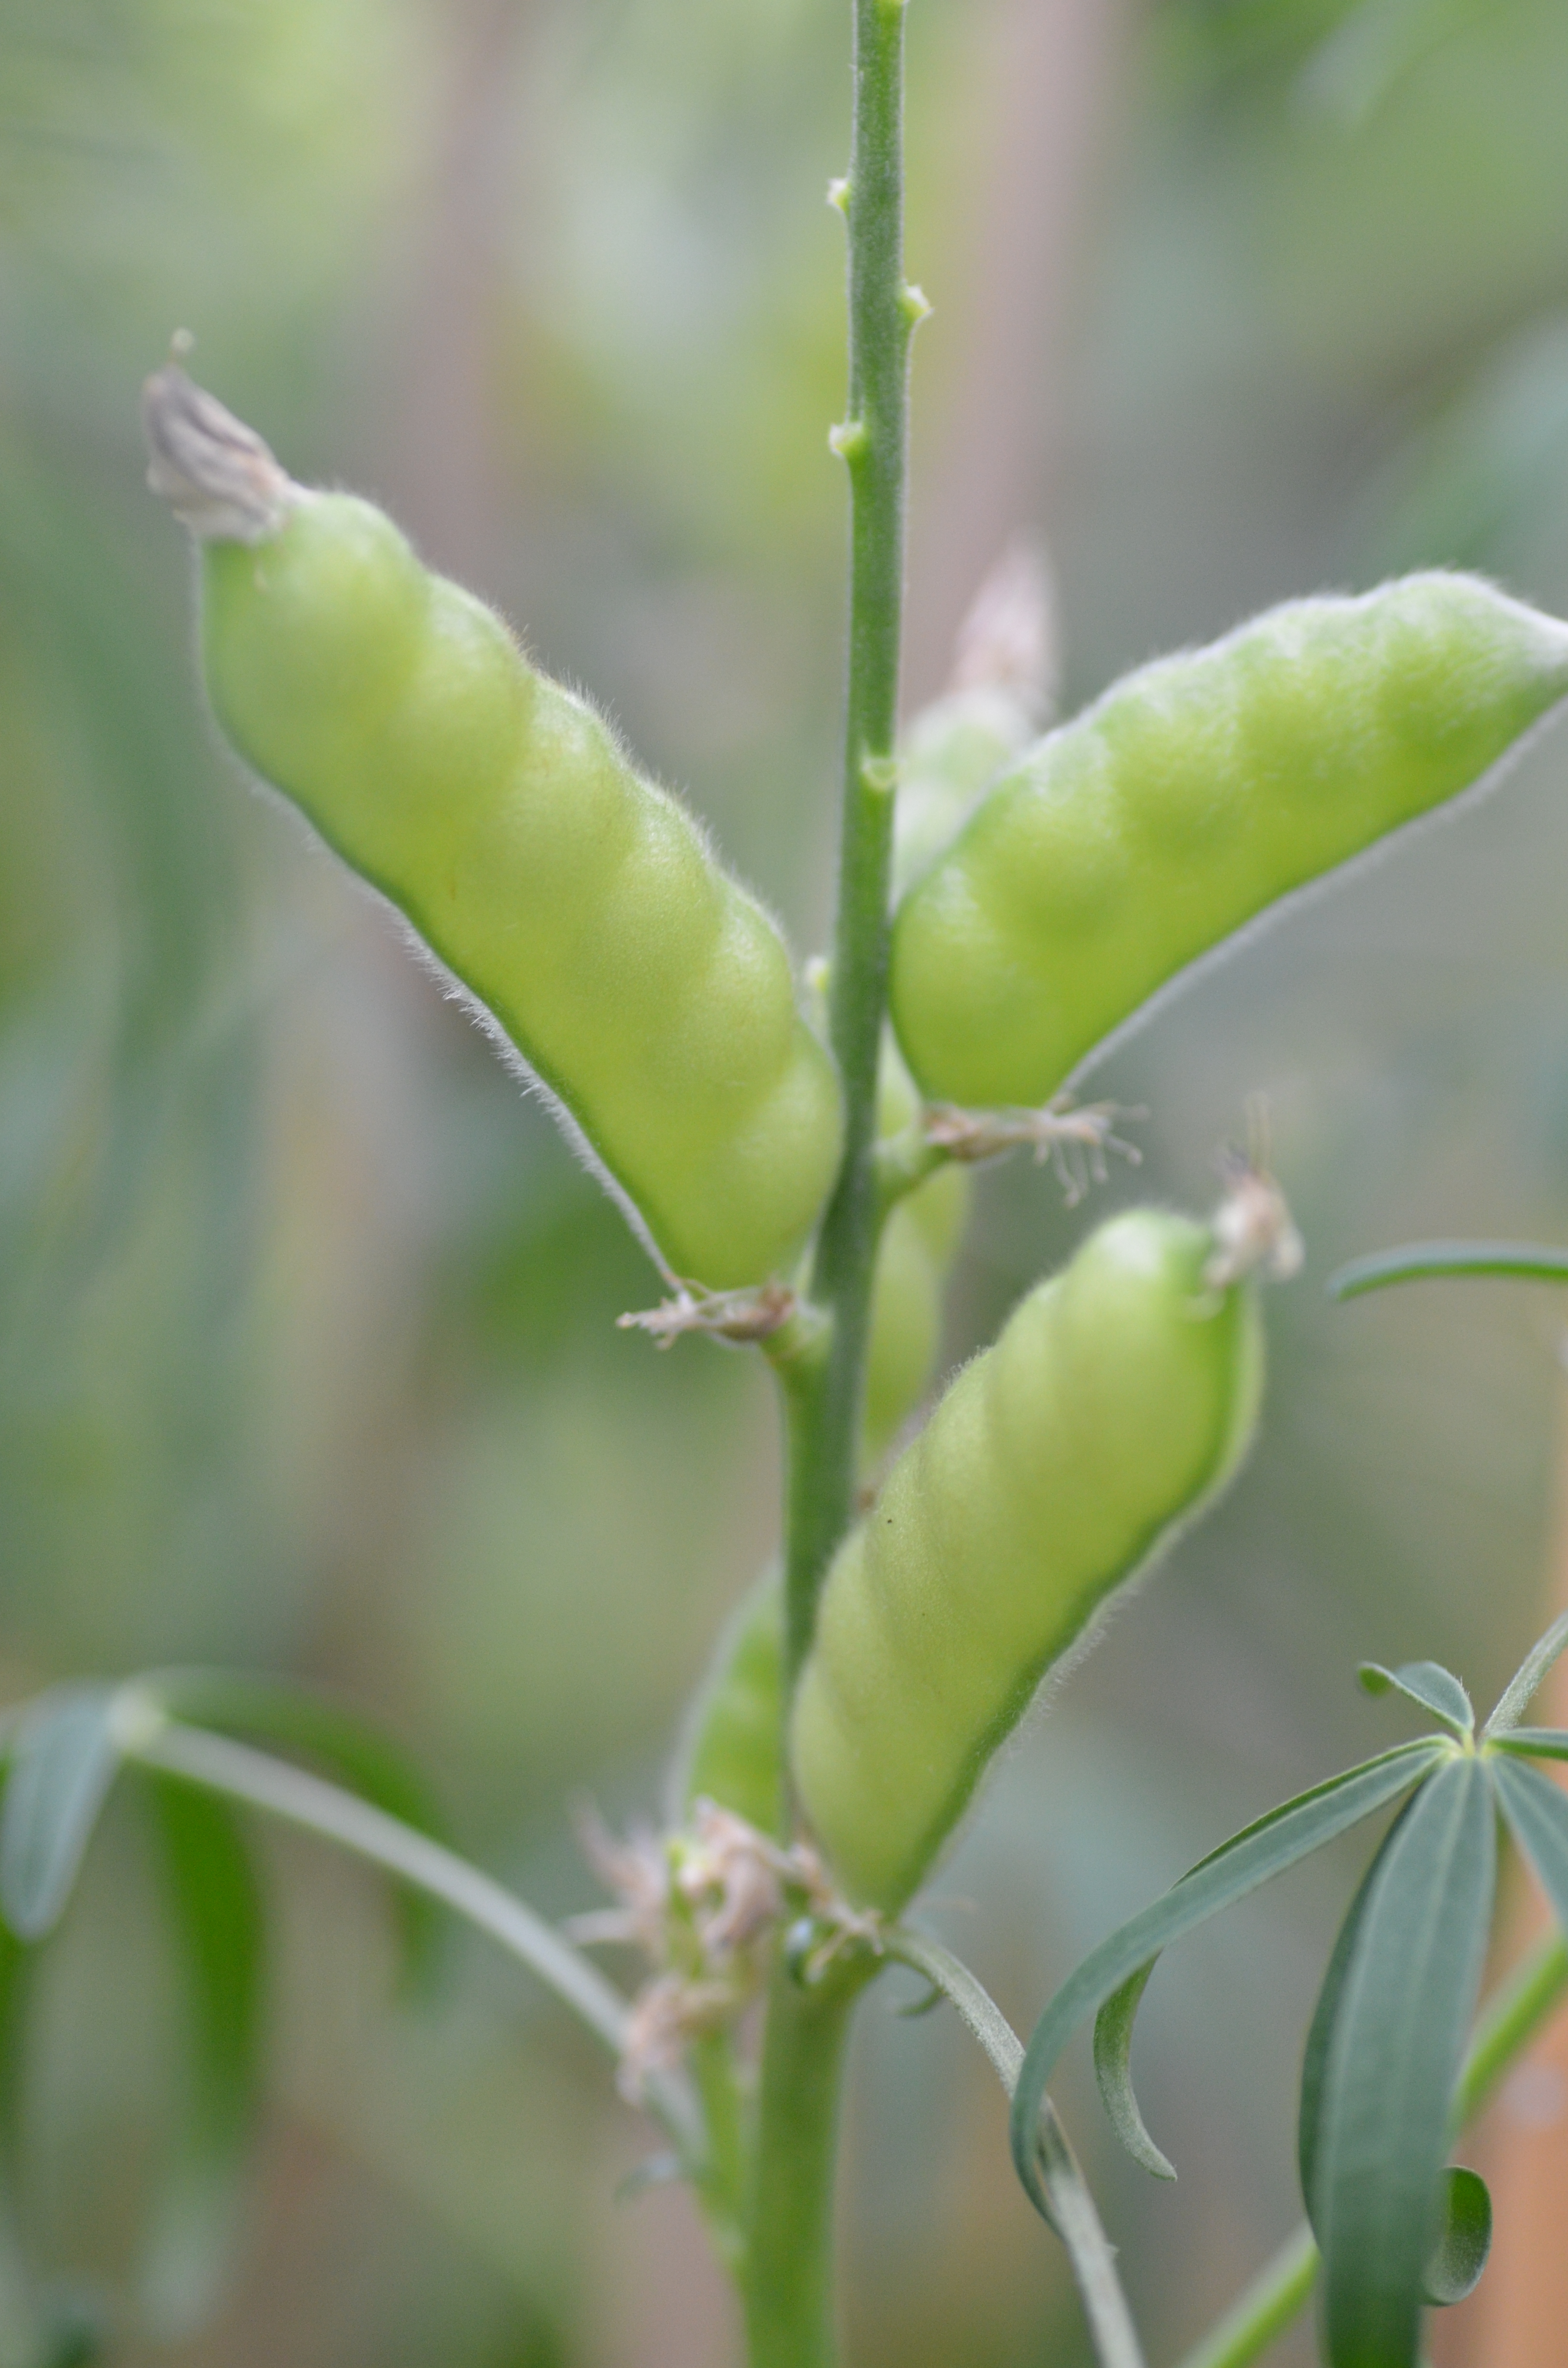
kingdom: Plantae
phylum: Tracheophyta
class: Magnoliopsida
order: Fabales
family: Fabaceae
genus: Lupinus
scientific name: Lupinus angustifolius
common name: Narrow-leaved lupin
